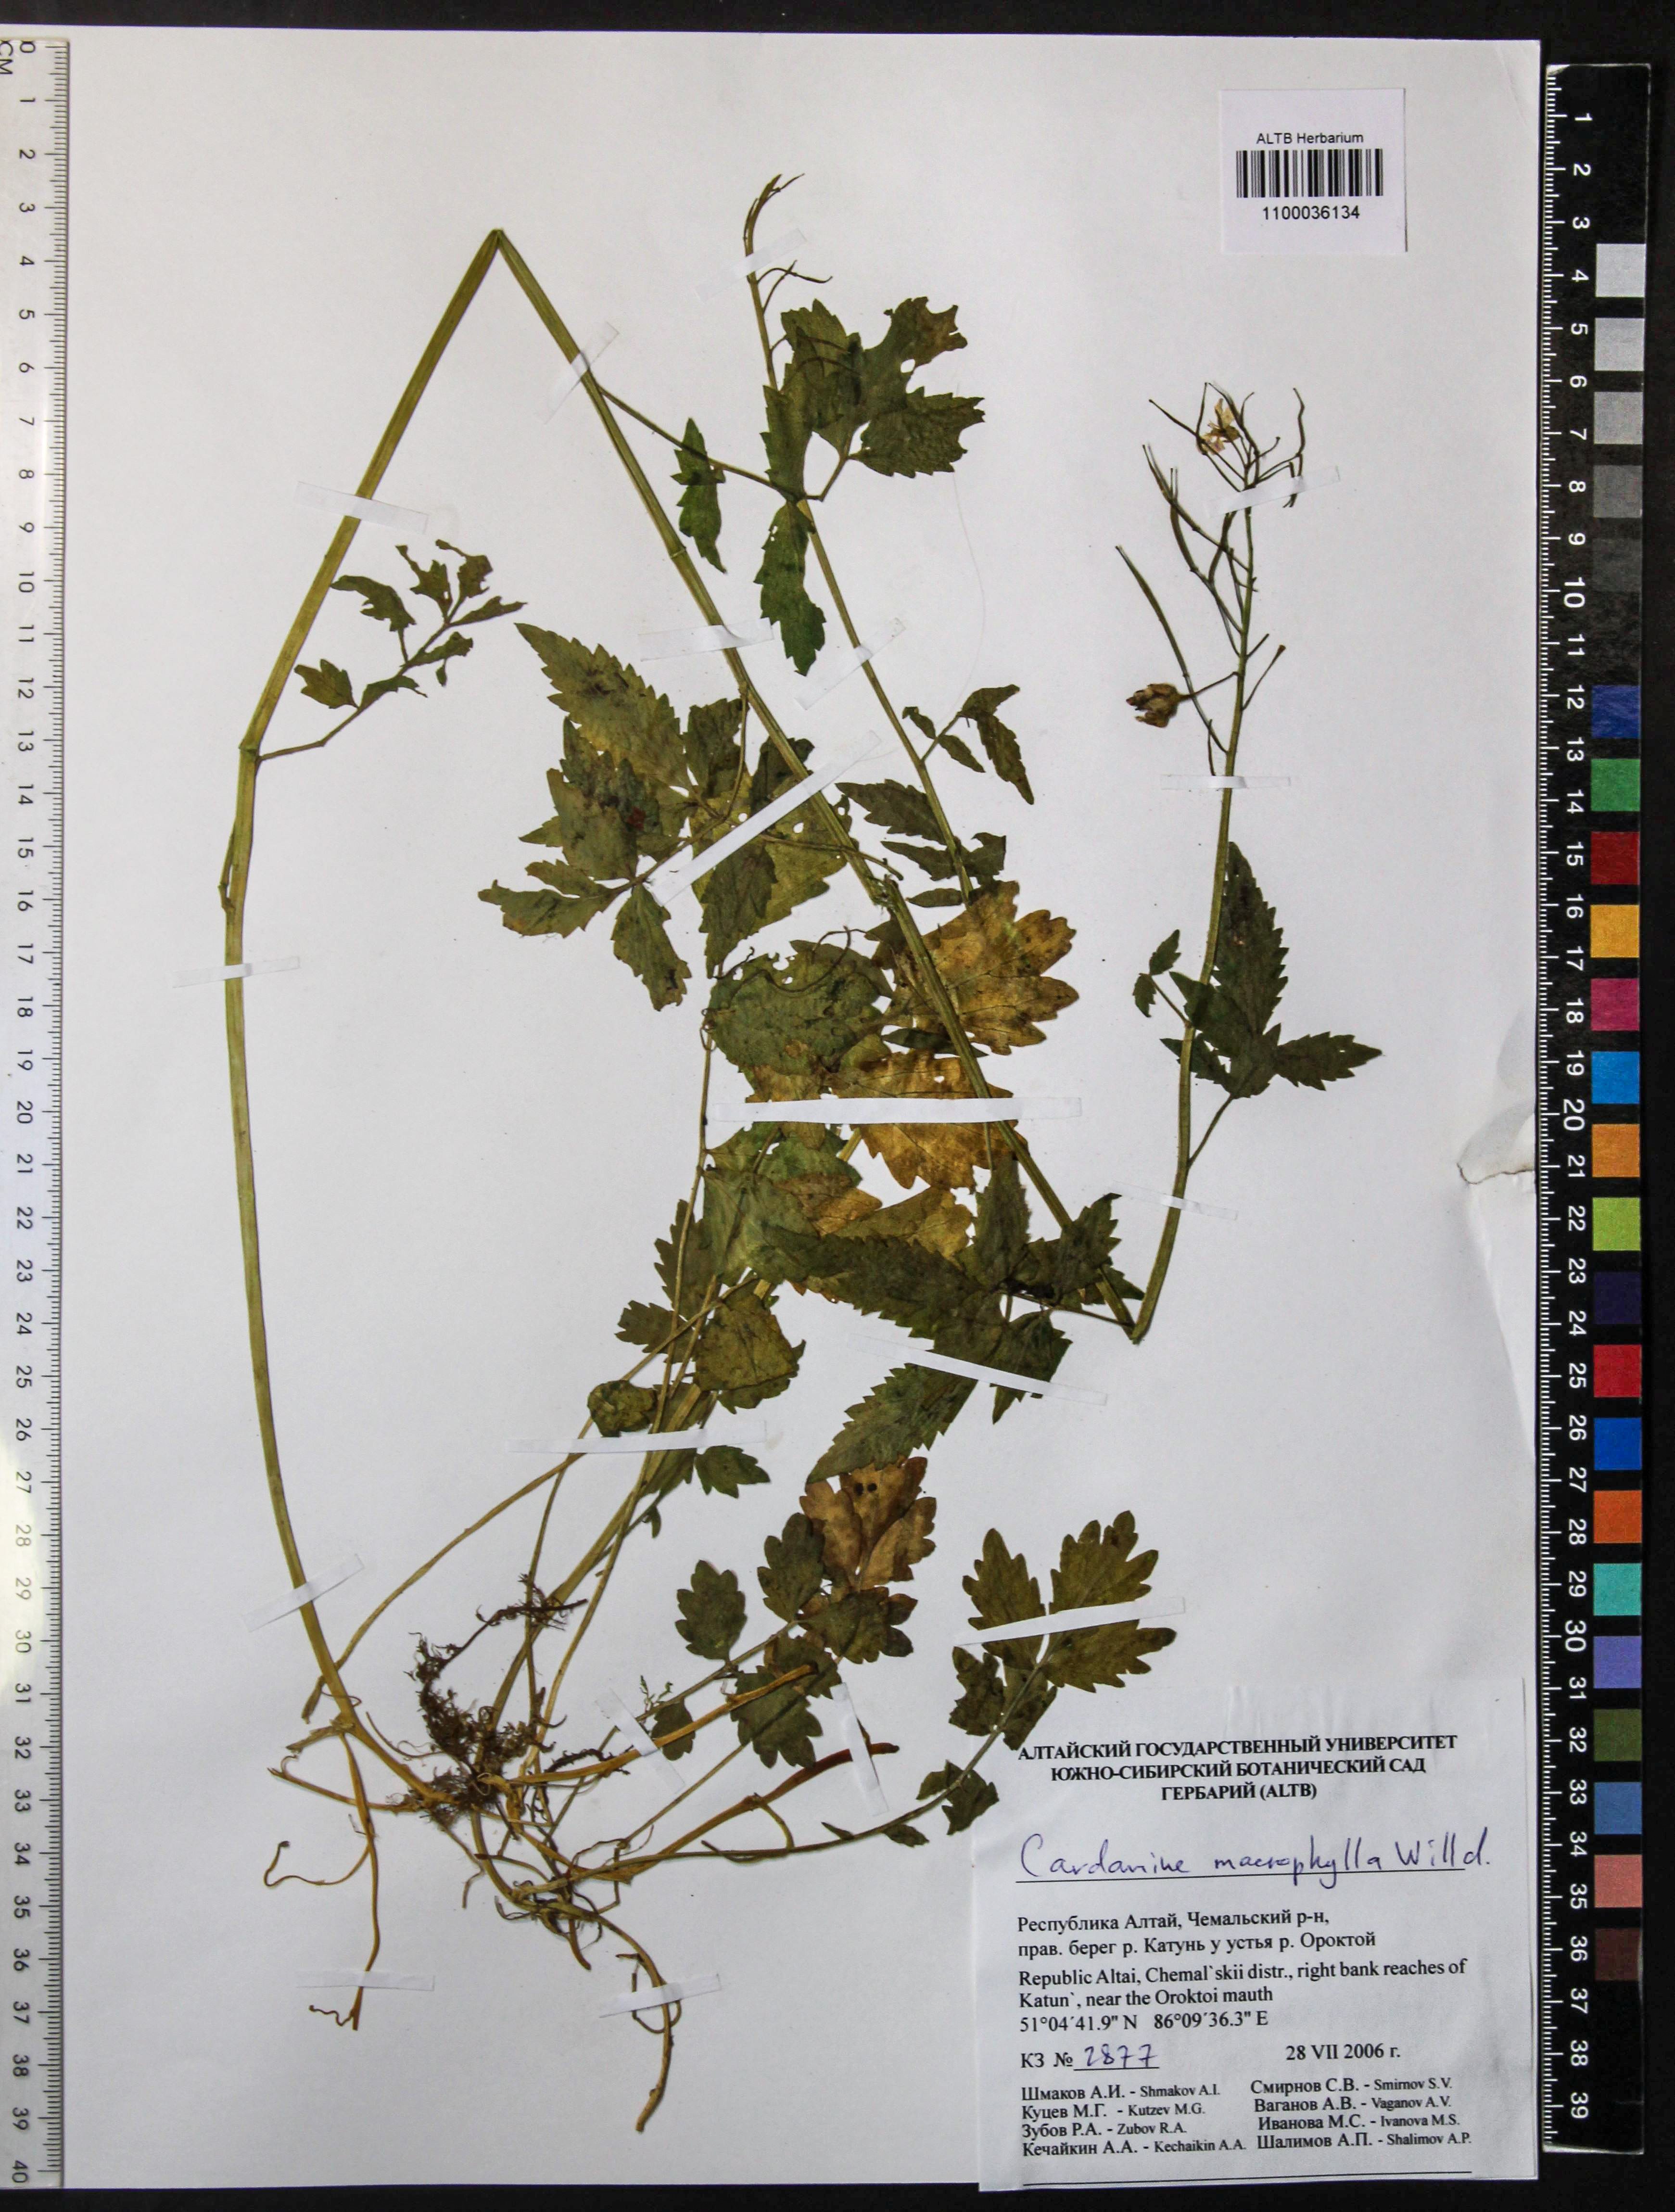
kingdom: Plantae
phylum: Tracheophyta
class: Magnoliopsida
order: Brassicales
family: Brassicaceae
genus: Cardamine
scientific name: Cardamine macrophylla
